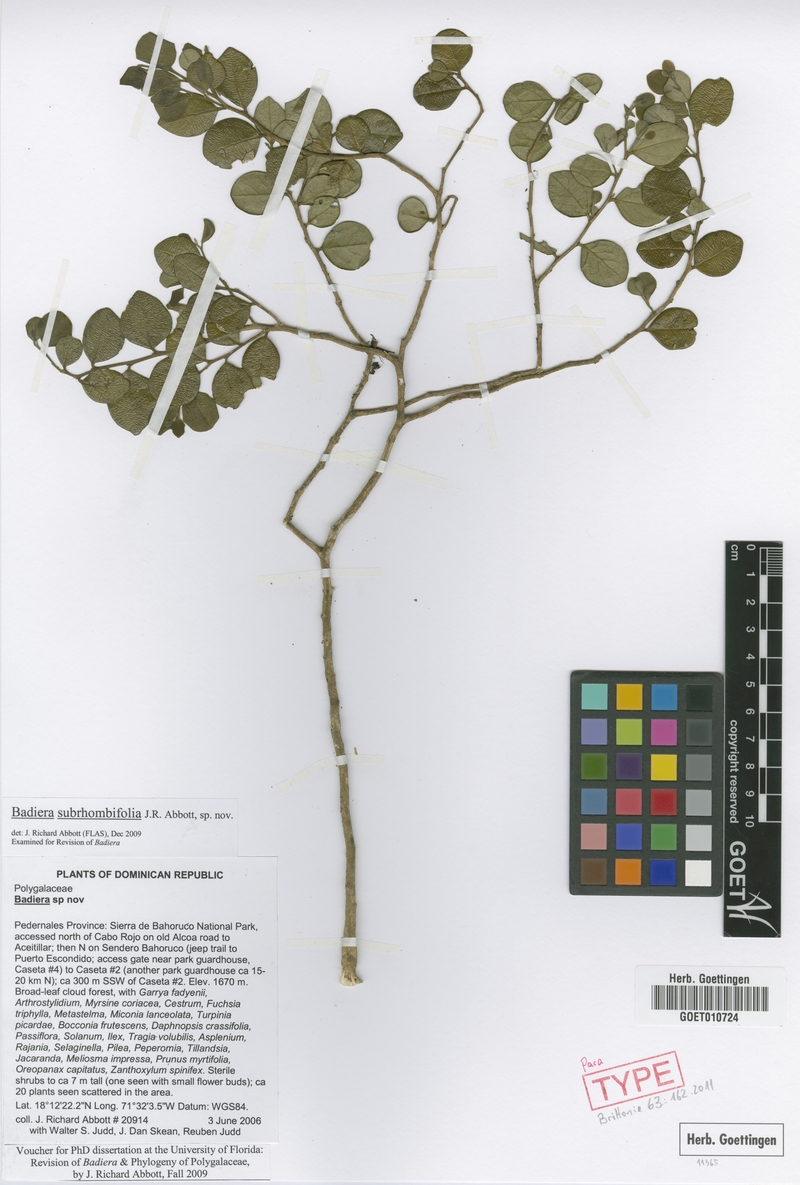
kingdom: Plantae
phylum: Tracheophyta
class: Magnoliopsida
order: Fabales
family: Polygalaceae
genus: Badiera
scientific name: Badiera subrhombifolia
